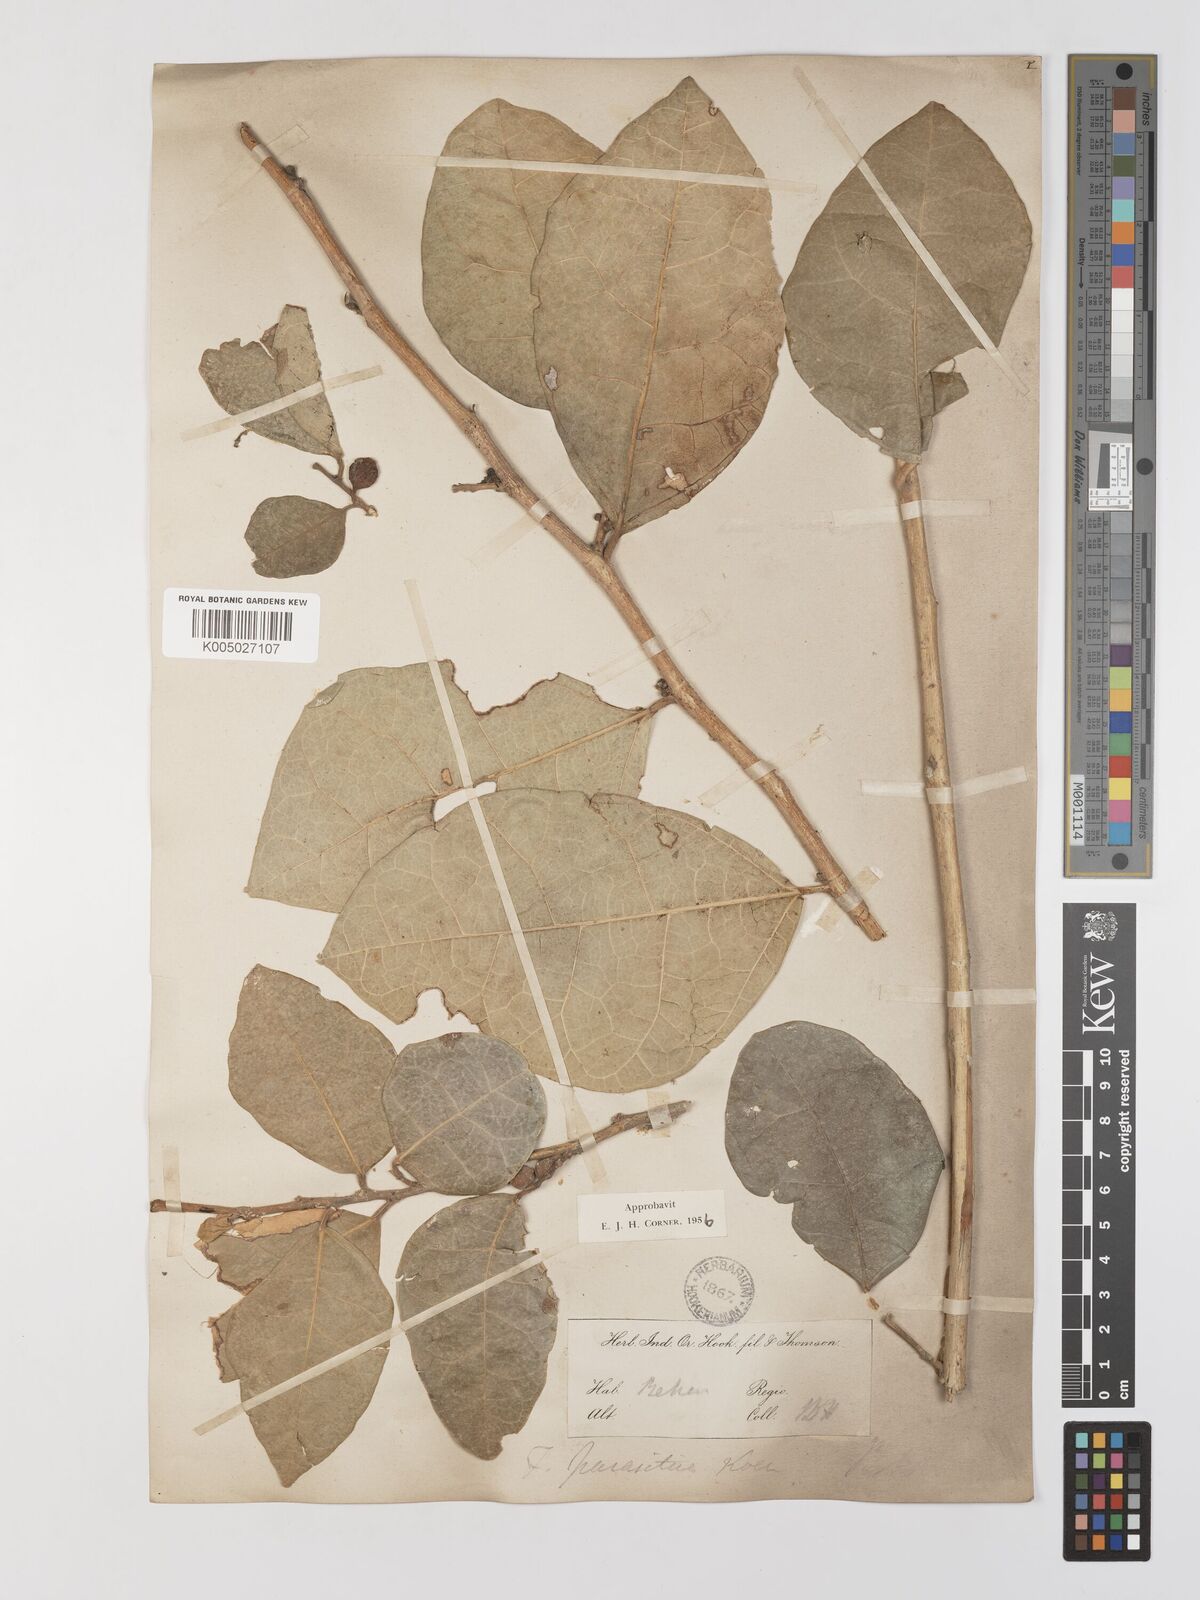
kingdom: Plantae
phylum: Tracheophyta
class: Magnoliopsida
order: Rosales
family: Moraceae
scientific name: Moraceae
